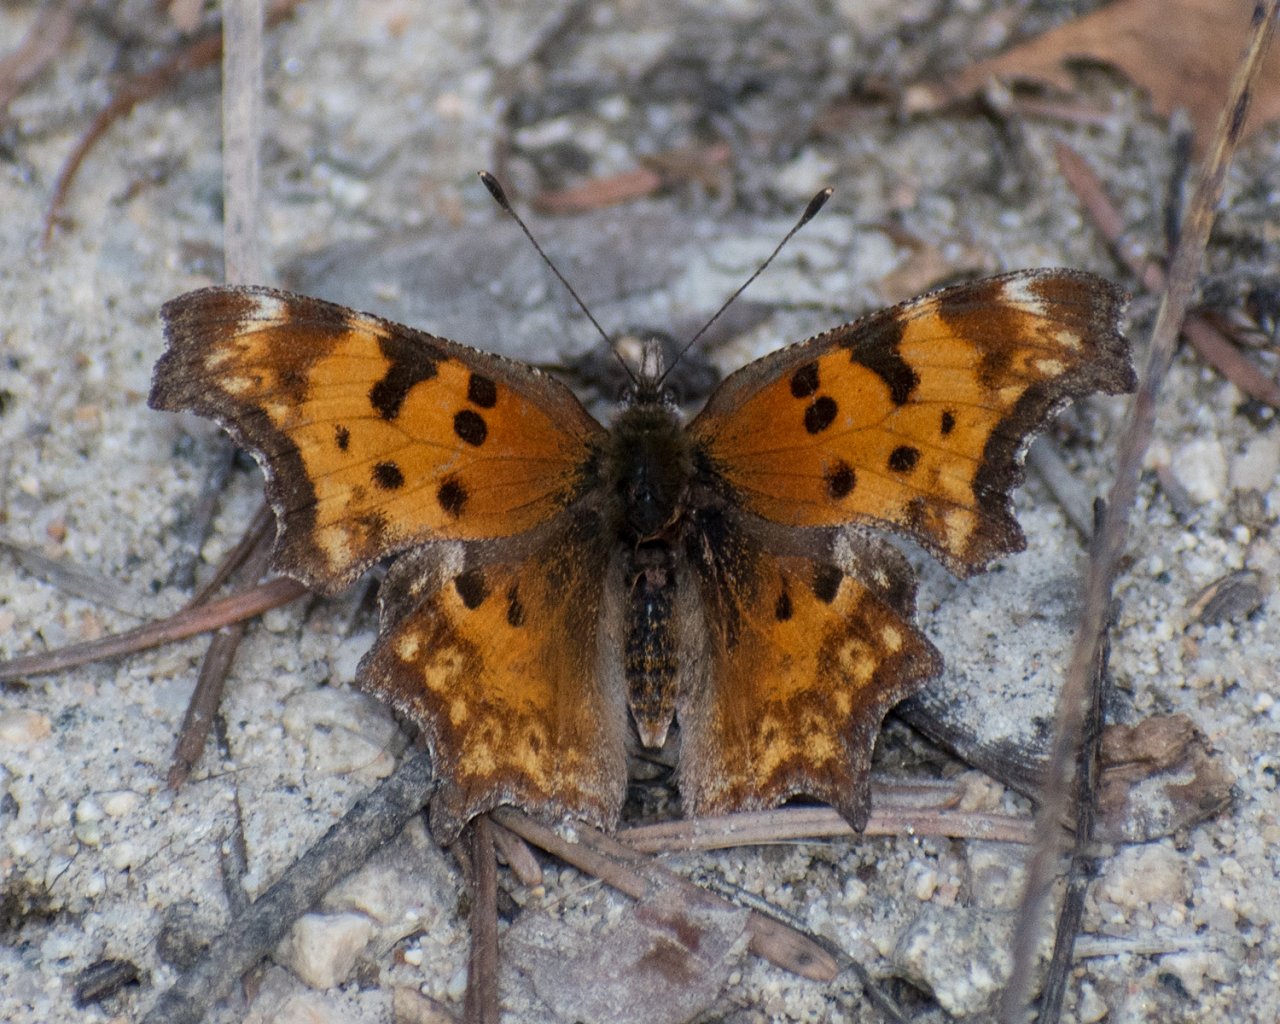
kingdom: Animalia
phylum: Arthropoda
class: Insecta
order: Lepidoptera
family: Nymphalidae
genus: Polygonia
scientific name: Polygonia gracilis
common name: Hoary Comma
